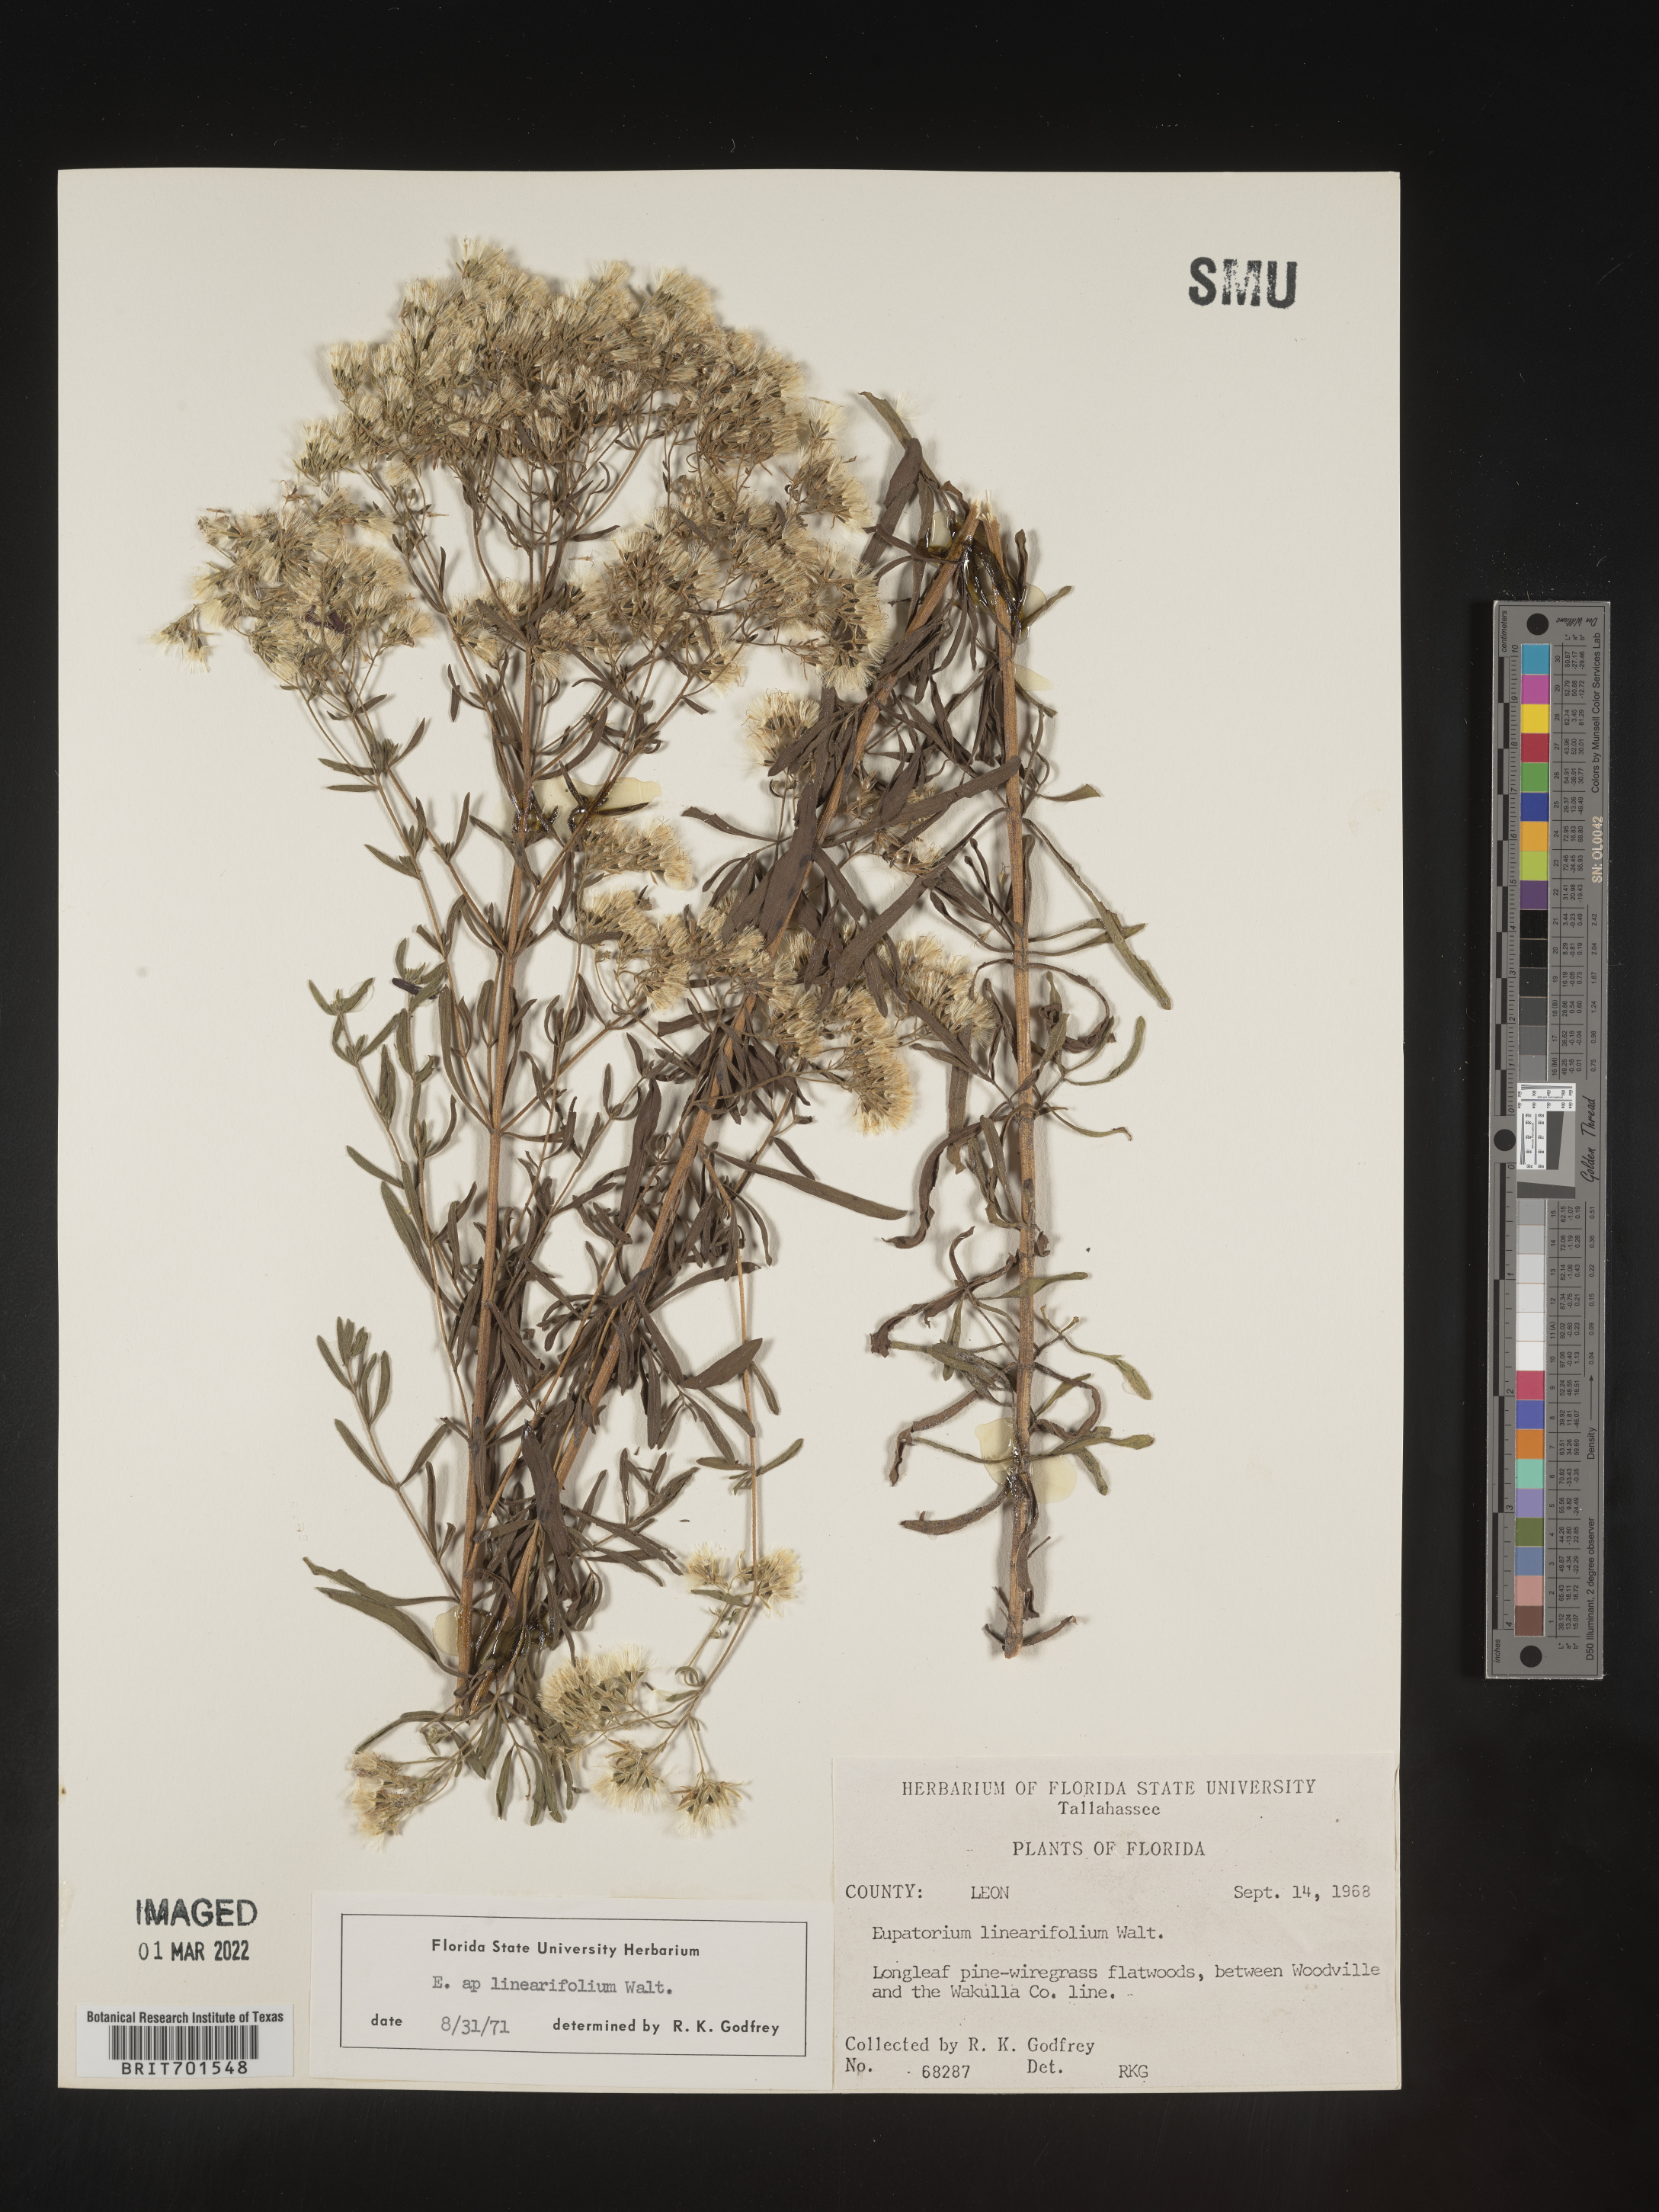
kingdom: Plantae
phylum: Tracheophyta
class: Magnoliopsida
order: Asterales
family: Asteraceae
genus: Eupatorium
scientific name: Eupatorium linearifolium
